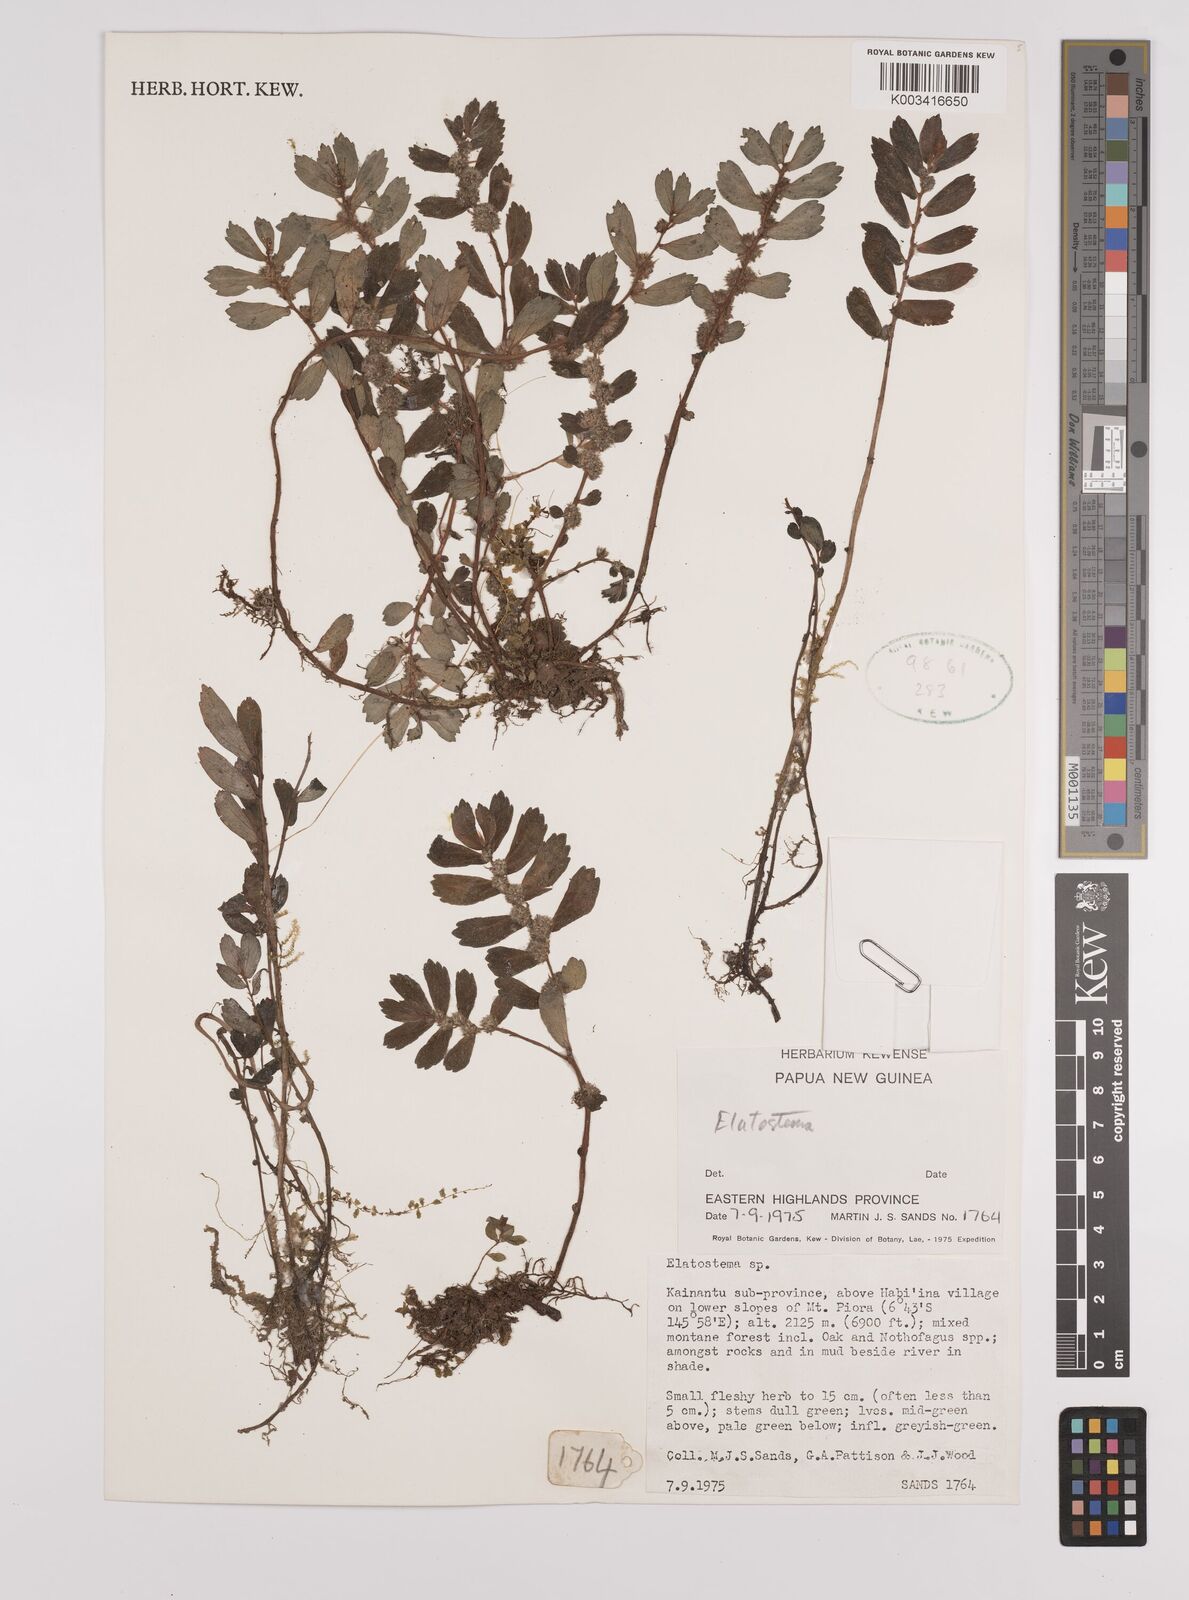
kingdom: Plantae
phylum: Tracheophyta
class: Magnoliopsida
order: Rosales
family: Urticaceae
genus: Elatostema
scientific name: Elatostema
